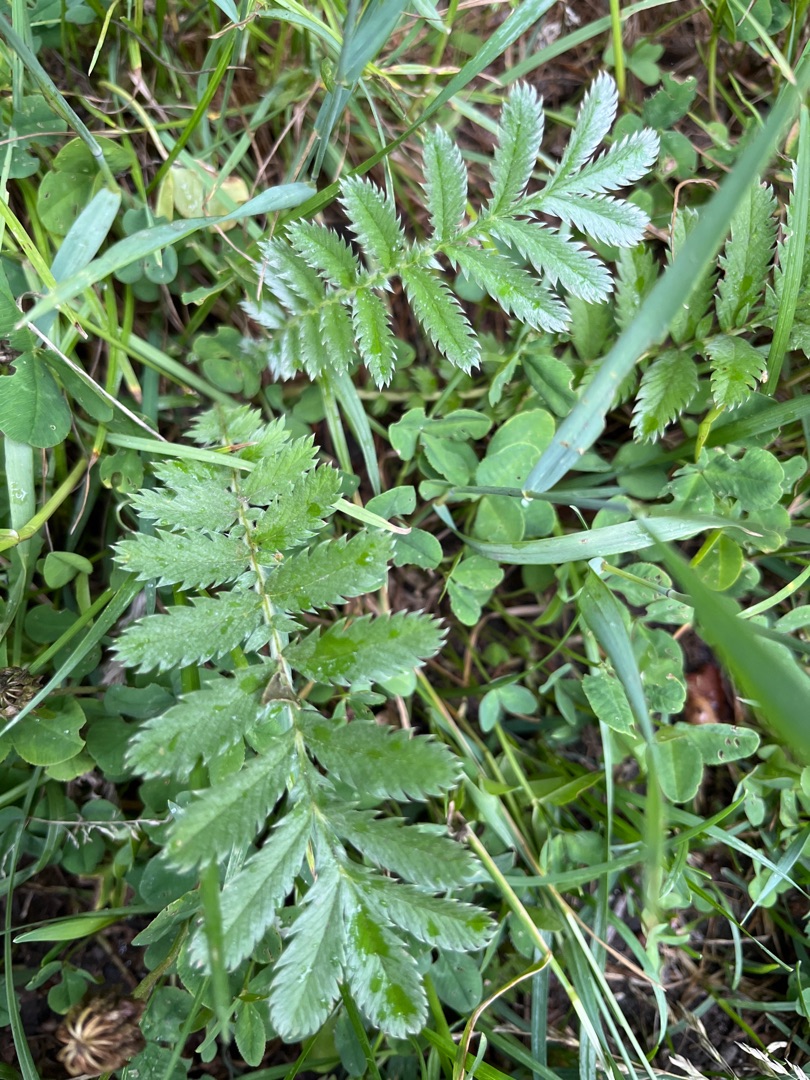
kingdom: Plantae
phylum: Tracheophyta
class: Magnoliopsida
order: Rosales
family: Rosaceae
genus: Argentina
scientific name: Argentina anserina
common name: Gåsepotentil
